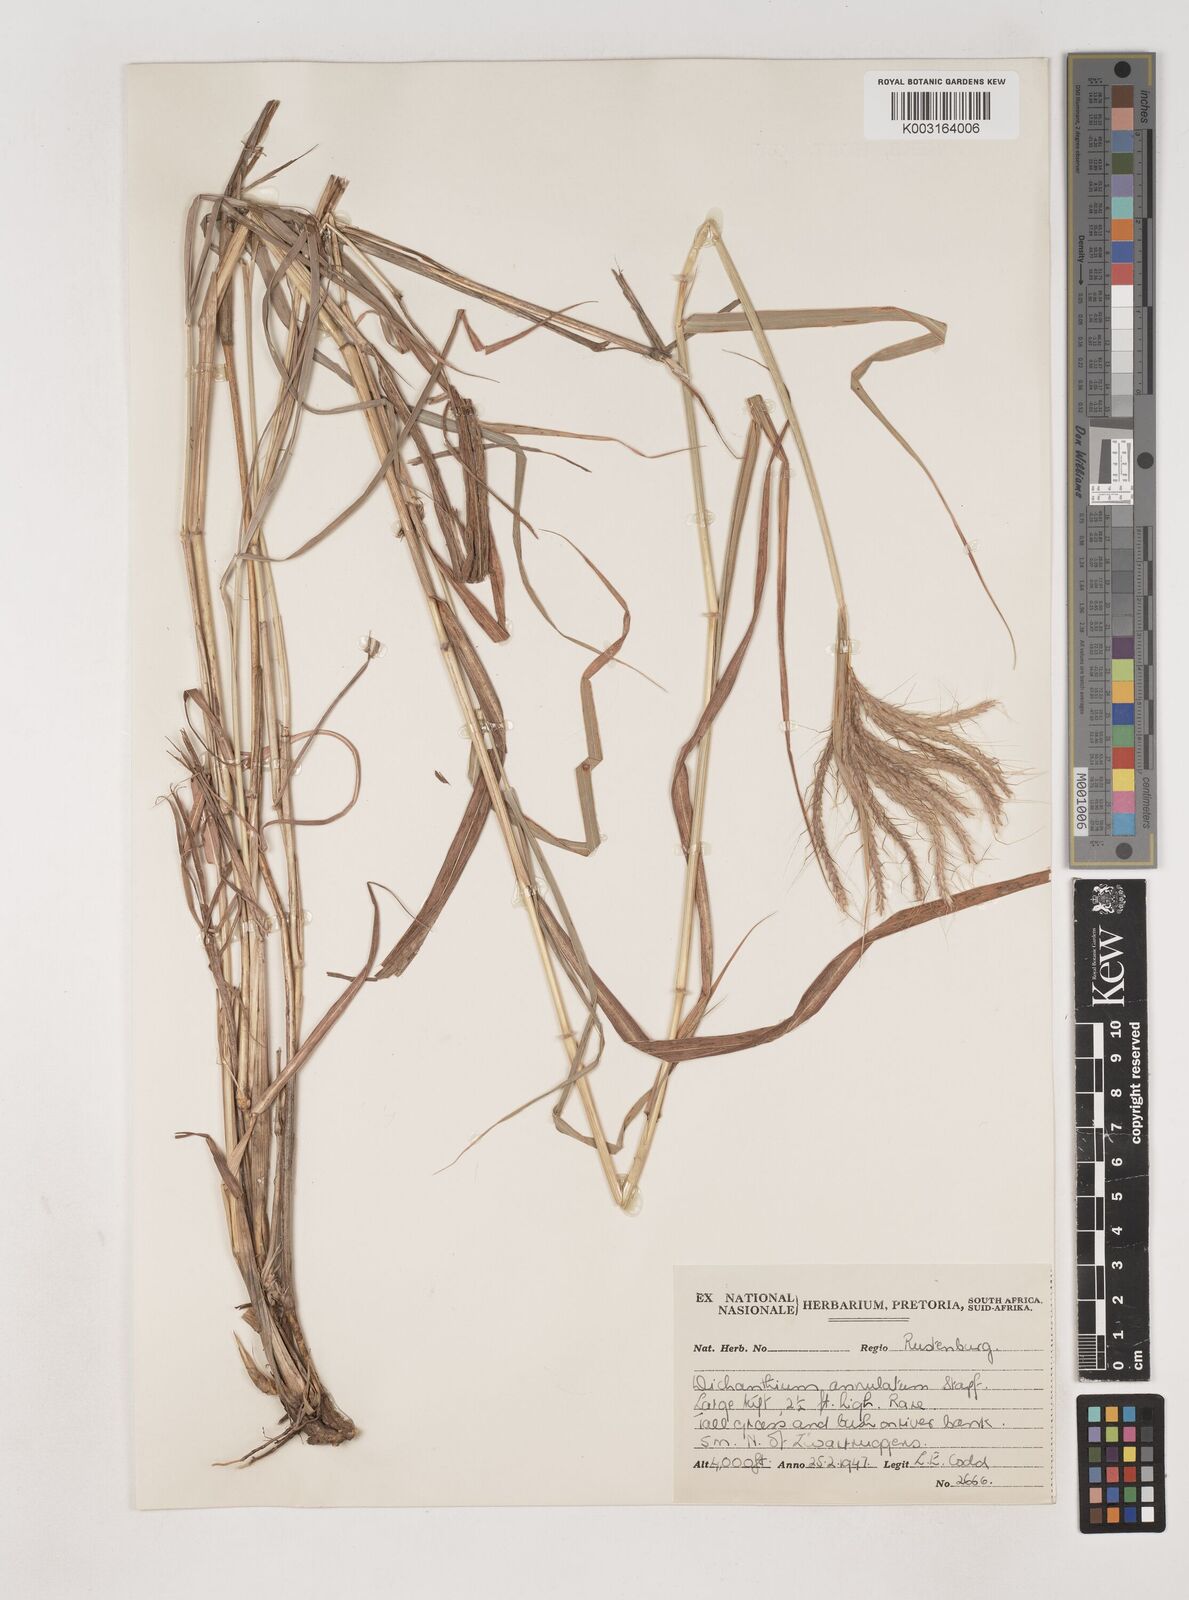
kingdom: Plantae
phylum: Tracheophyta
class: Liliopsida
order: Poales
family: Poaceae
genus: Dichanthium
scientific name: Dichanthium annulatum
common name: Kleberg's bluestem
